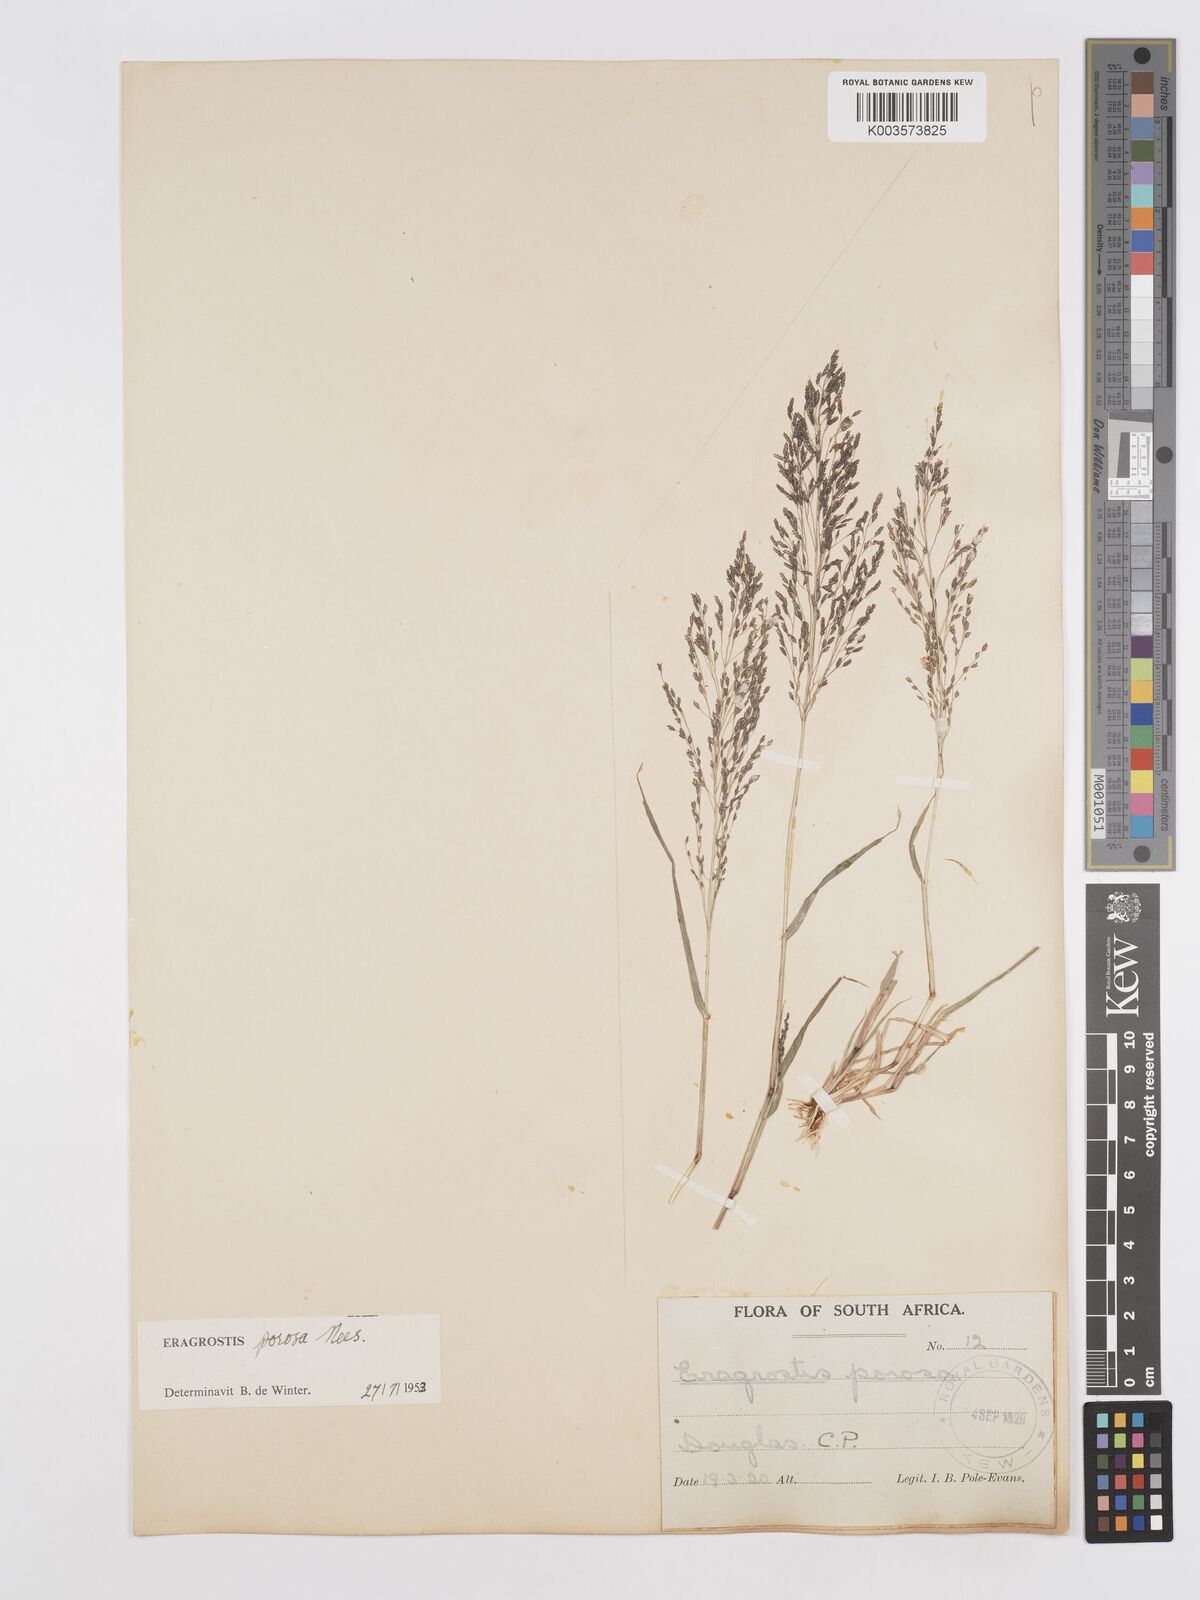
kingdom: Plantae
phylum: Tracheophyta
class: Liliopsida
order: Poales
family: Poaceae
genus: Eragrostis
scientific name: Eragrostis porosa
